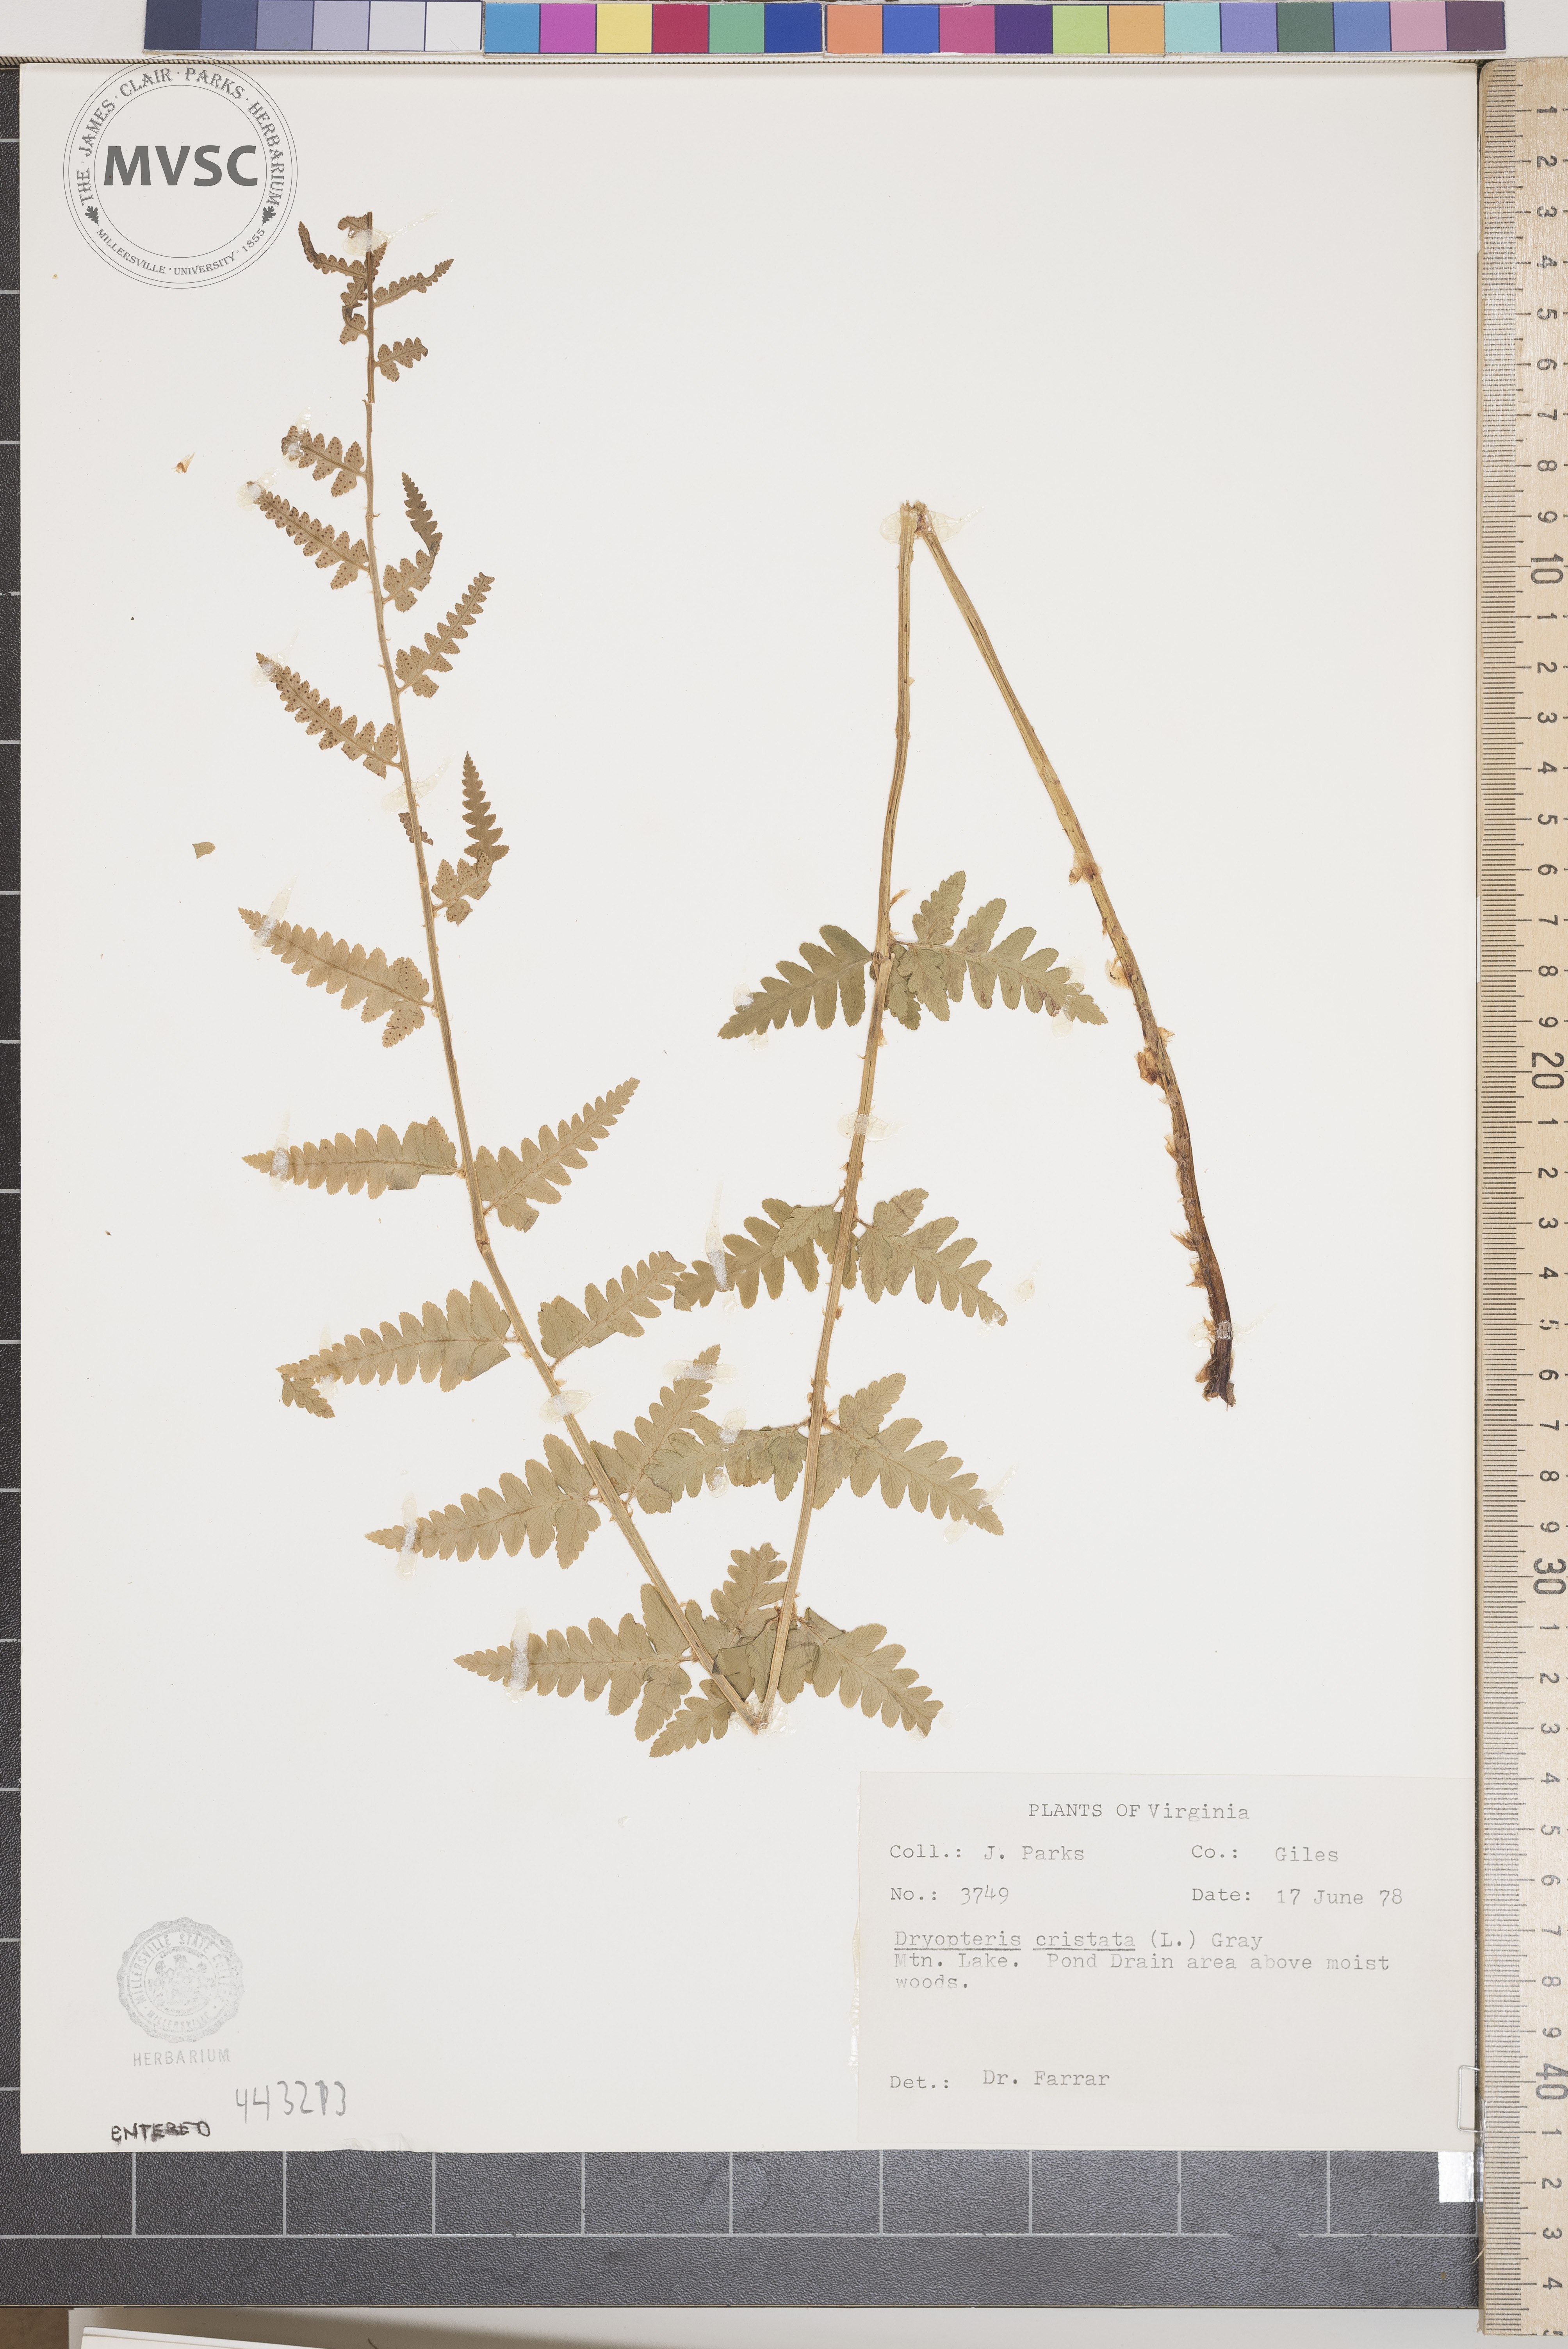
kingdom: Plantae
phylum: Tracheophyta
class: Polypodiopsida
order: Polypodiales
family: Dryopteridaceae
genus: Dryopteris
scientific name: Dryopteris cristata
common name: Crested wood fern
